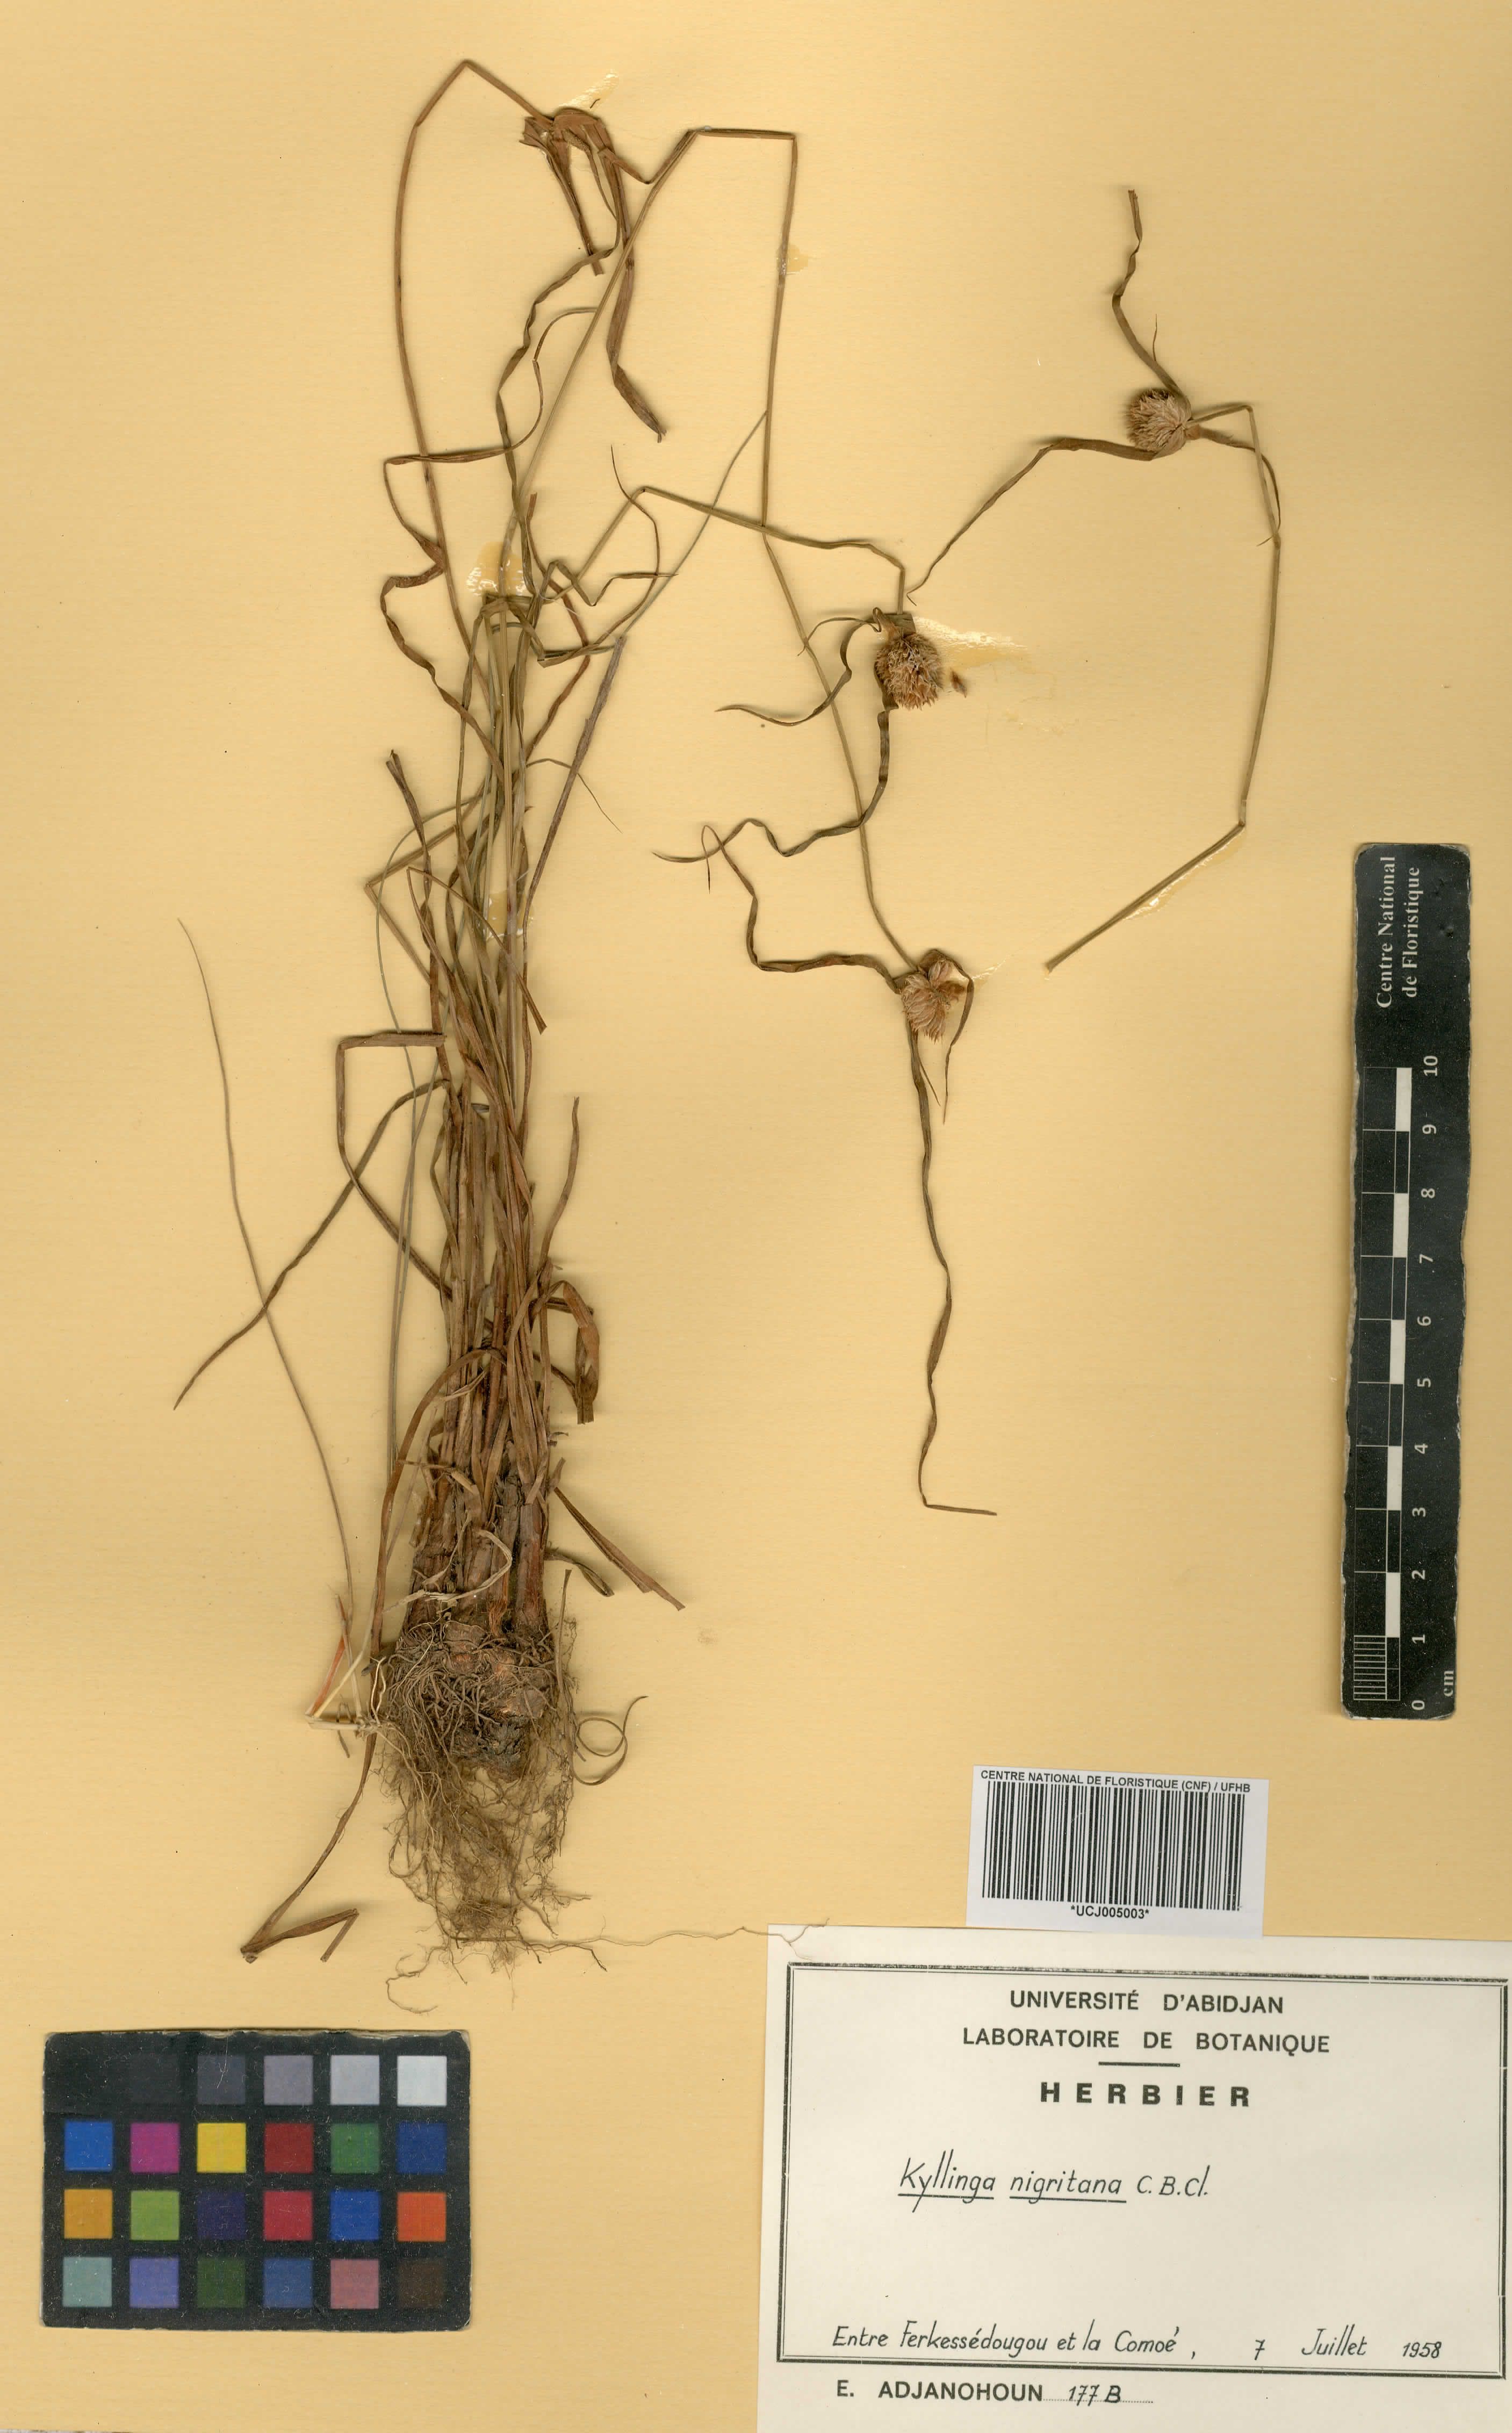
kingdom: Plantae
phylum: Tracheophyta
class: Liliopsida
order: Poales
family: Cyperaceae
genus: Cyperus
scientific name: Cyperus alatus
